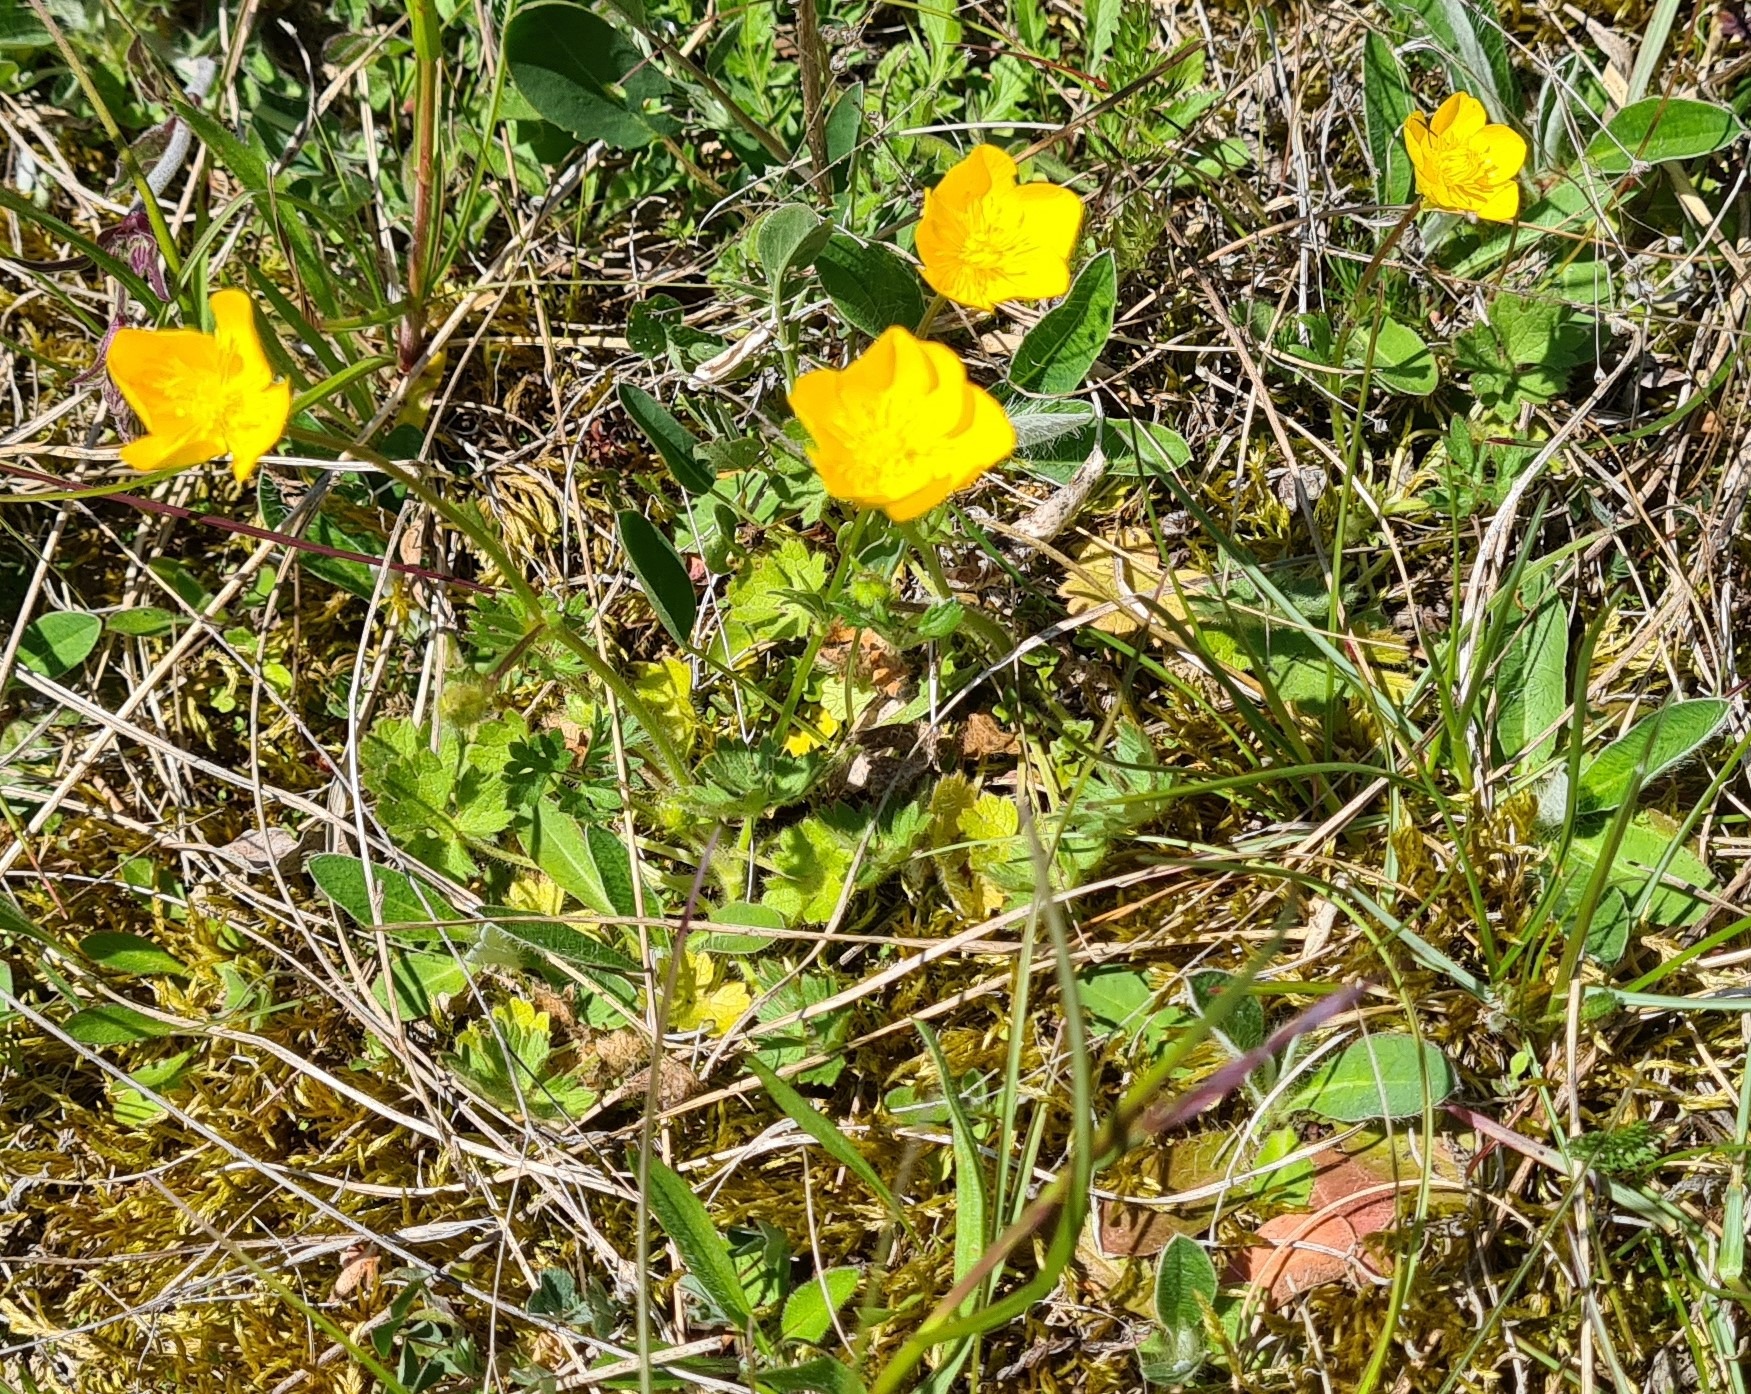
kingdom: Plantae
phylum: Tracheophyta
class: Magnoliopsida
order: Ranunculales
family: Ranunculaceae
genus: Ranunculus
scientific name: Ranunculus bulbosus
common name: Knold-ranunkel
